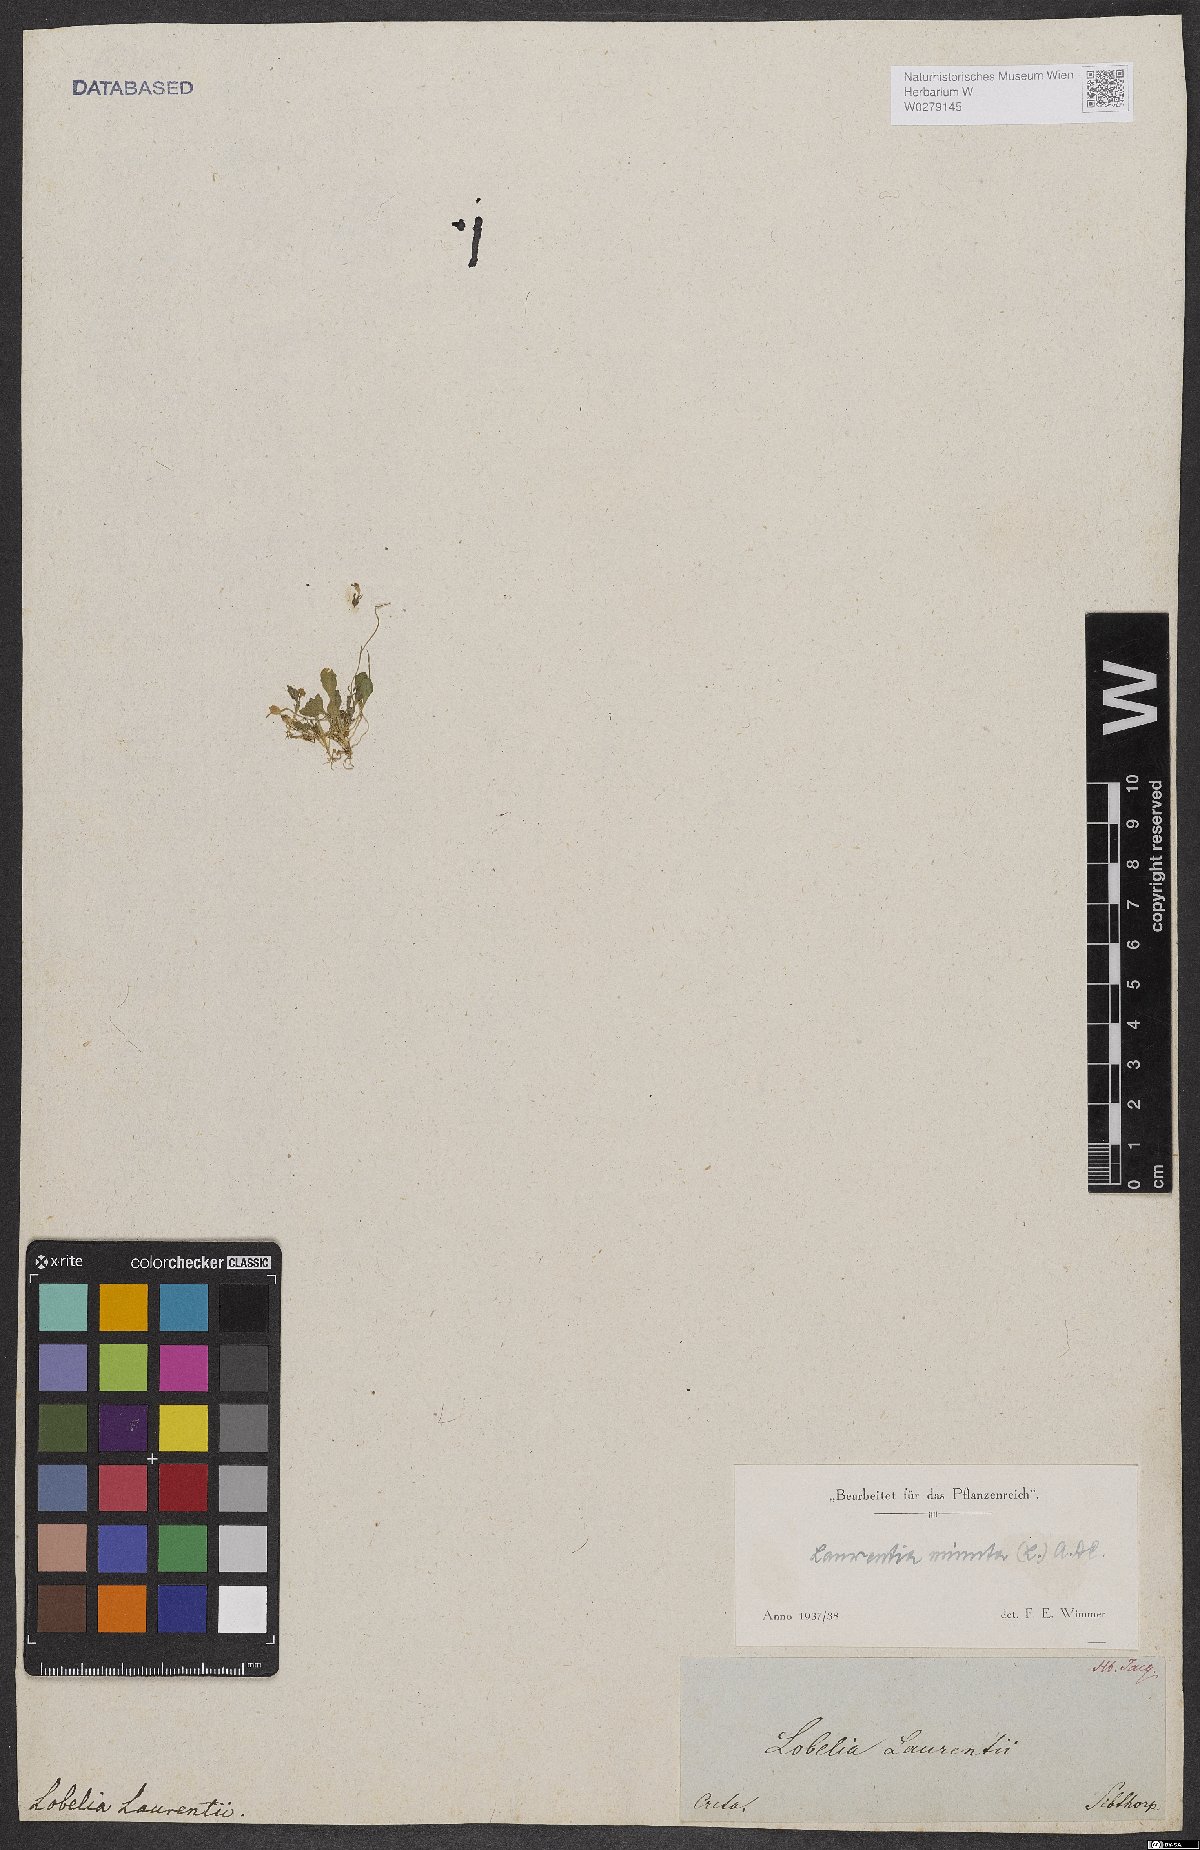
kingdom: Plantae
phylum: Tracheophyta
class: Magnoliopsida
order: Asterales
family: Campanulaceae
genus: Solenopsis
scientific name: Solenopsis minuta
